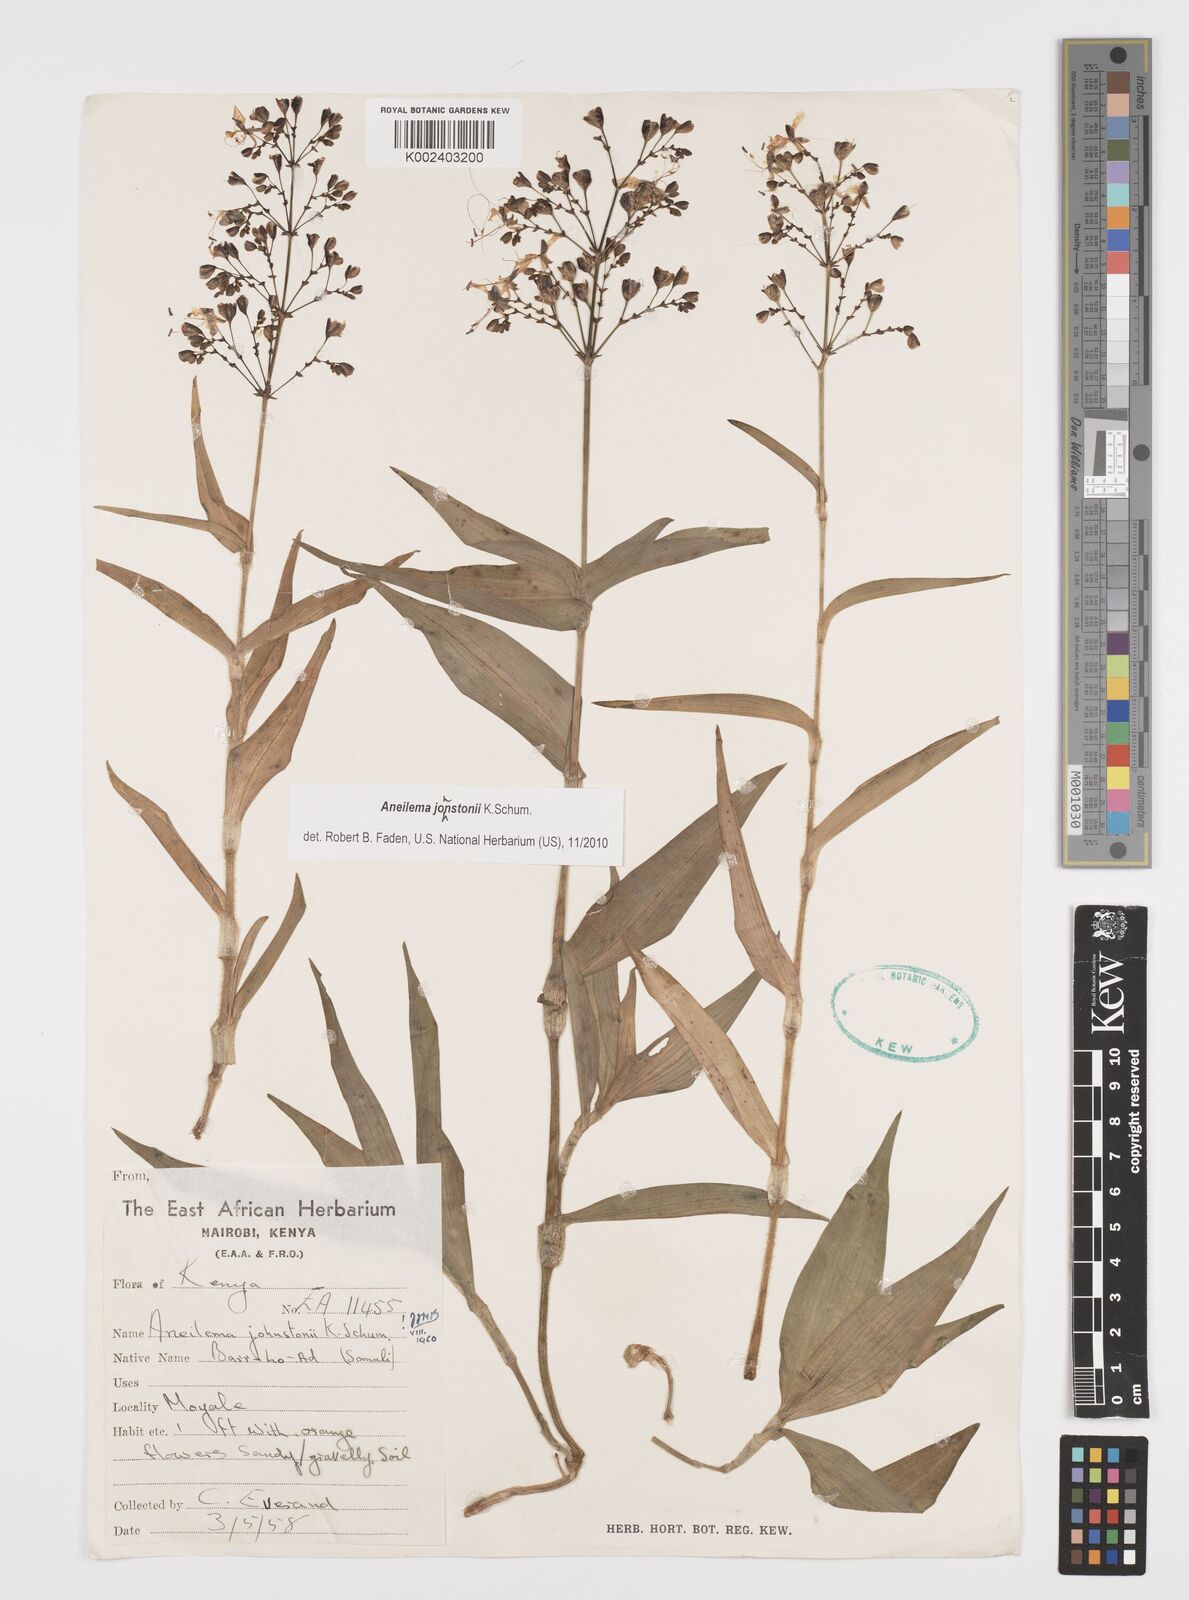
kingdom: Plantae
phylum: Tracheophyta
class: Liliopsida
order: Commelinales
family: Commelinaceae
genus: Aneilema
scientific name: Aneilema johnstonii
